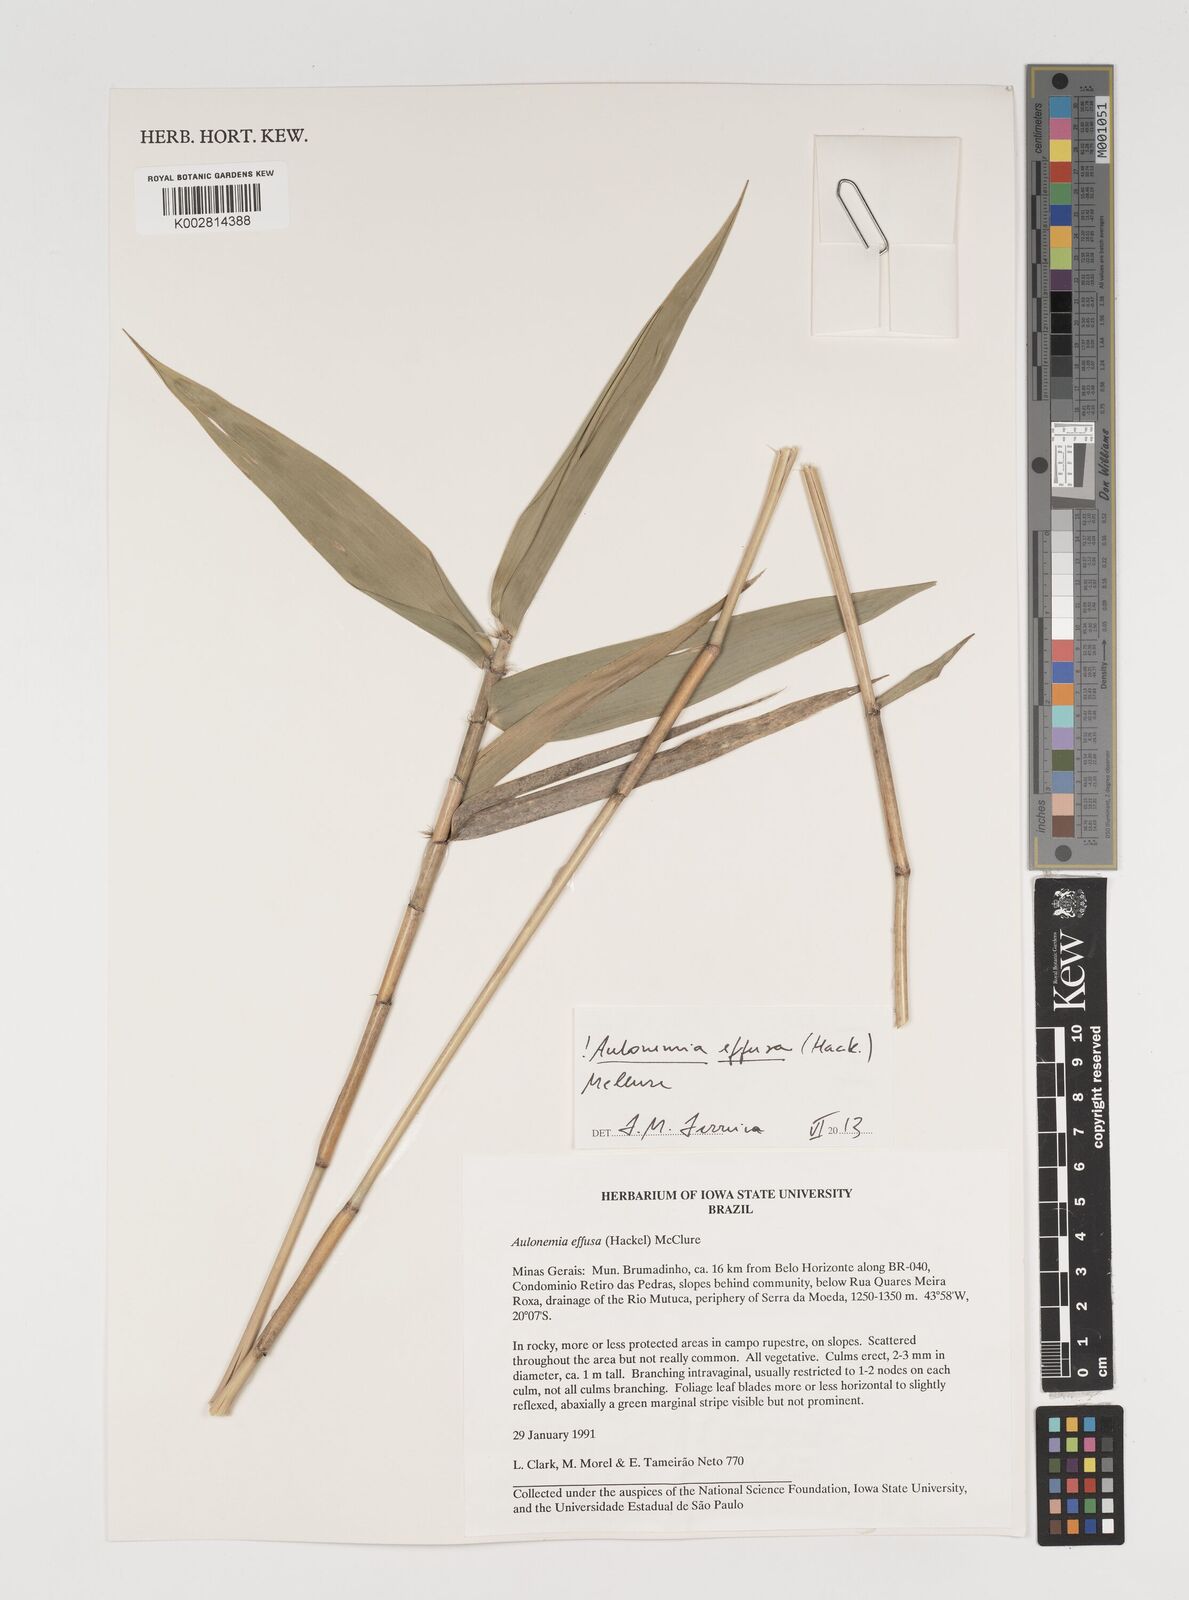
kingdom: Plantae
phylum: Tracheophyta
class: Liliopsida
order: Poales
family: Poaceae
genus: Aulonemia
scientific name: Aulonemia effusa
